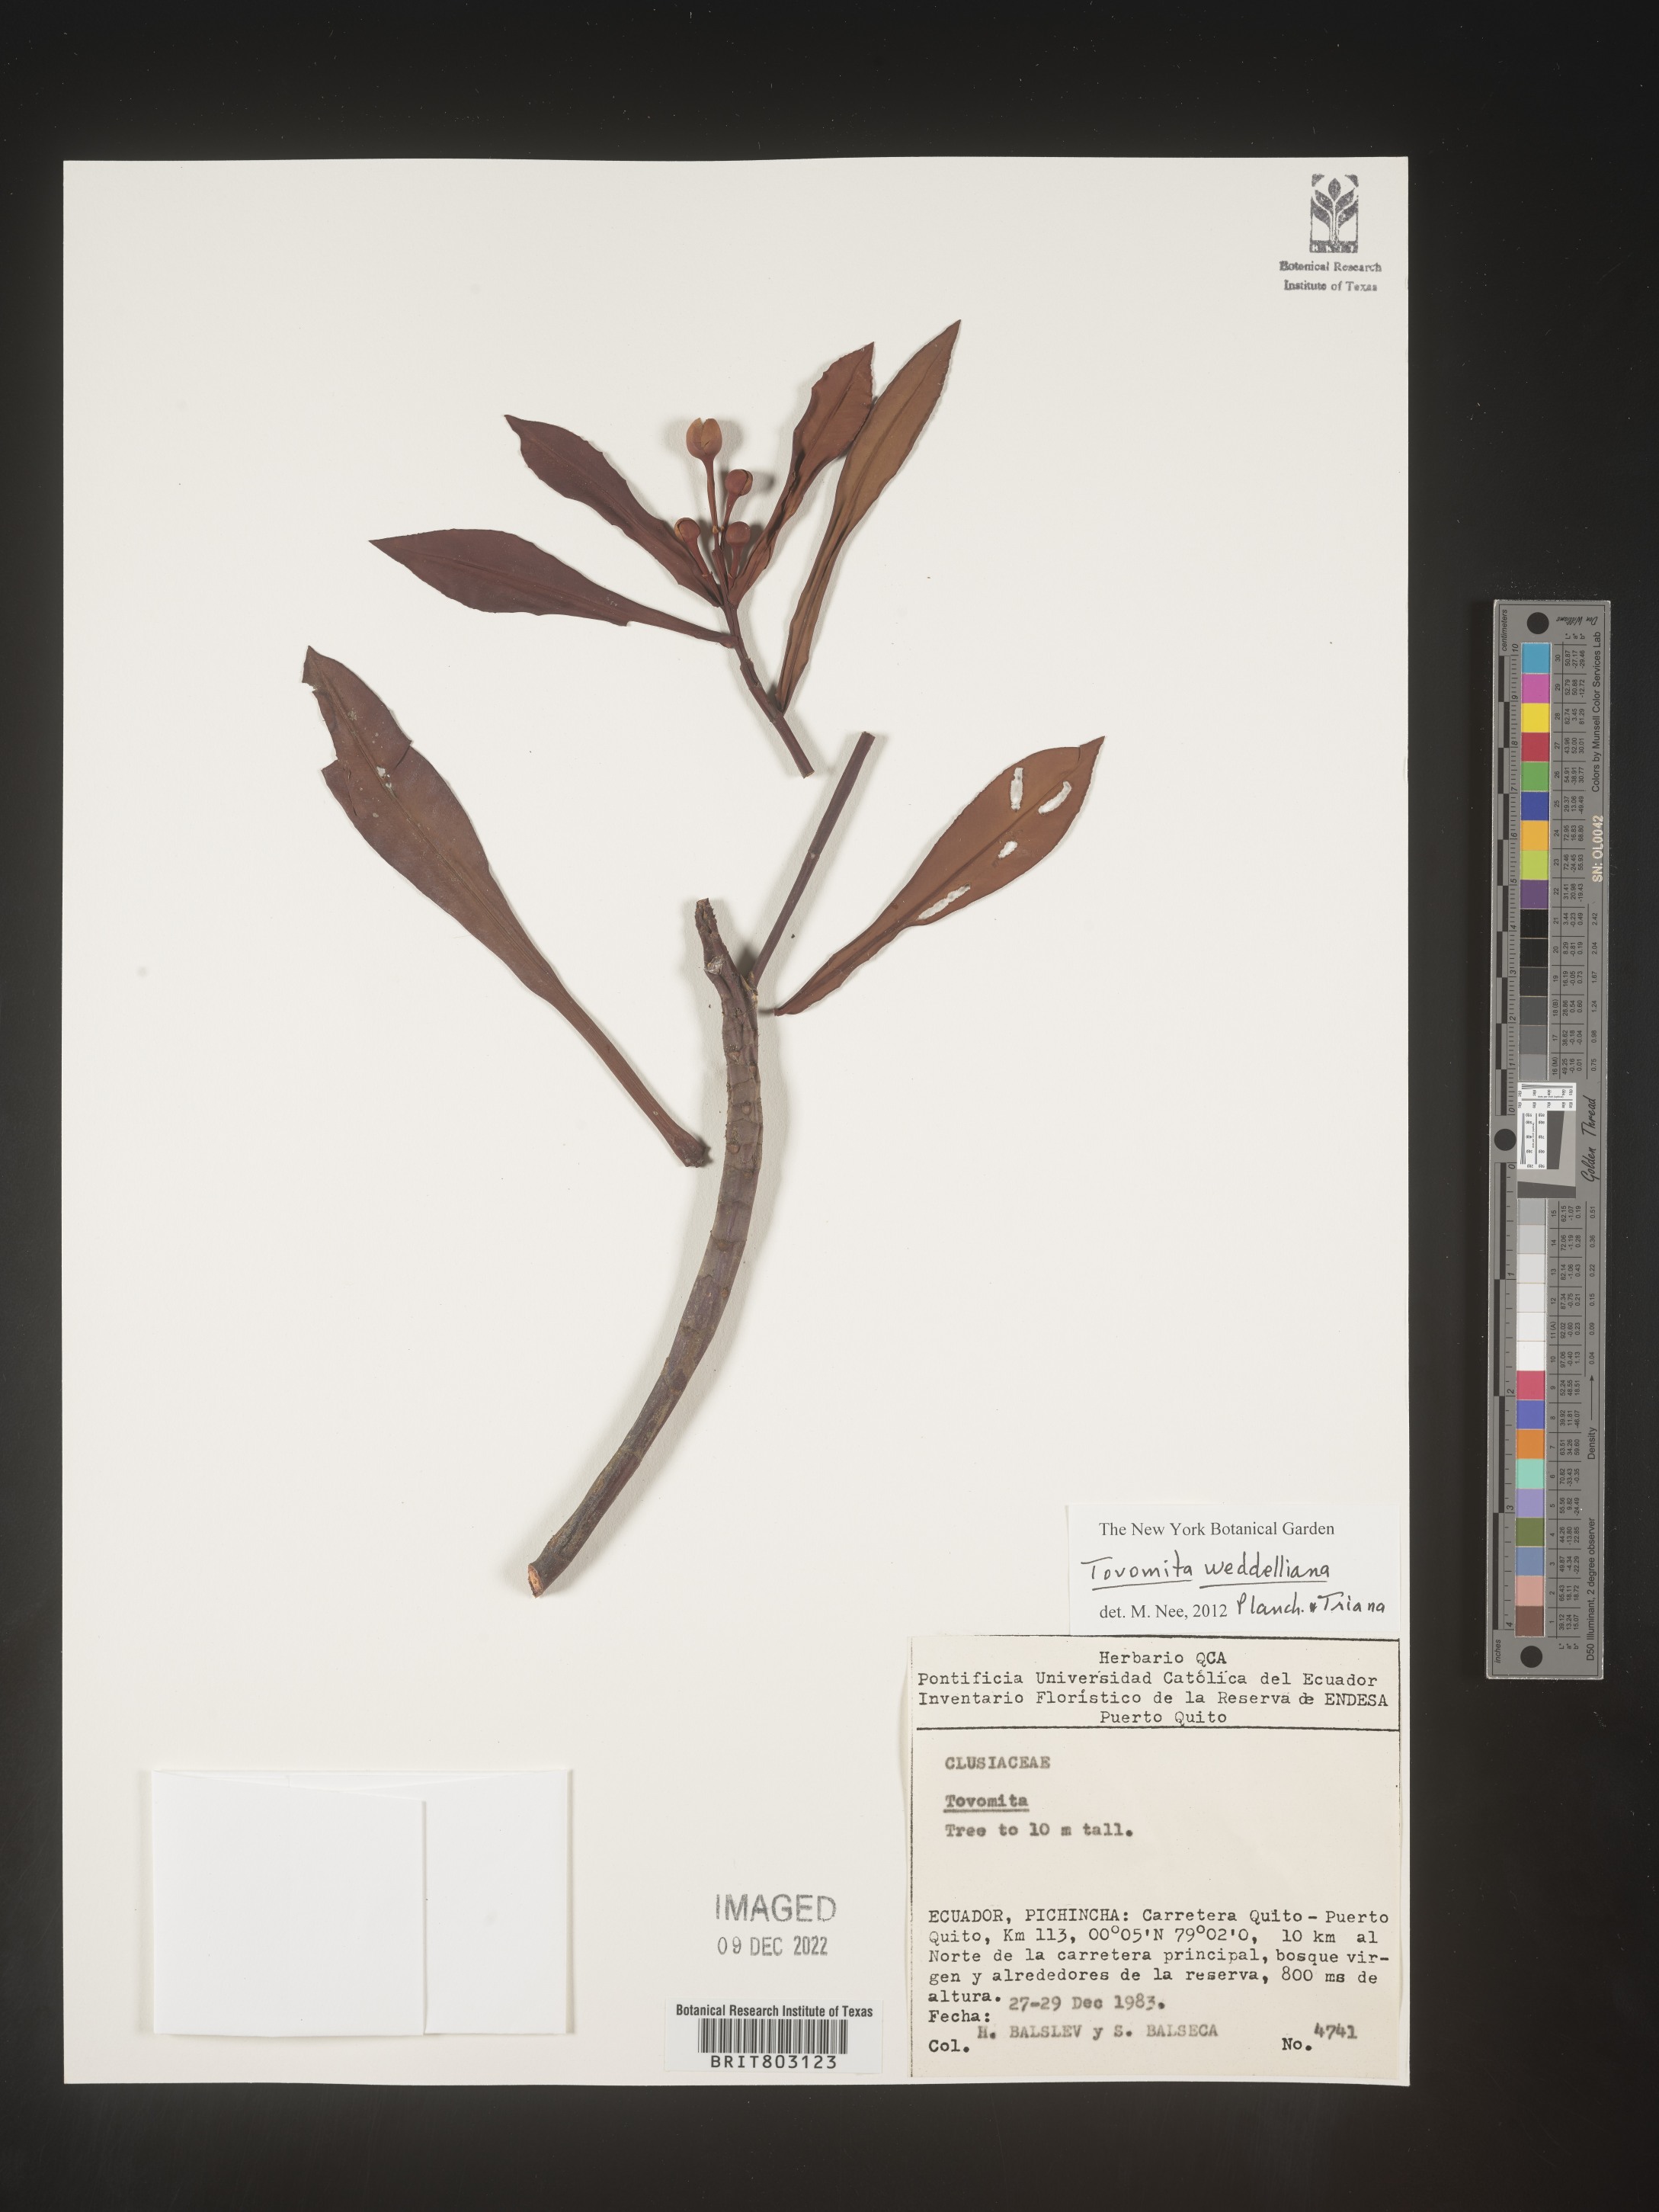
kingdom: Plantae
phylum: Tracheophyta
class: Magnoliopsida
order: Malpighiales
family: Clusiaceae
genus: Arawakia
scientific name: Arawakia weddelliana
